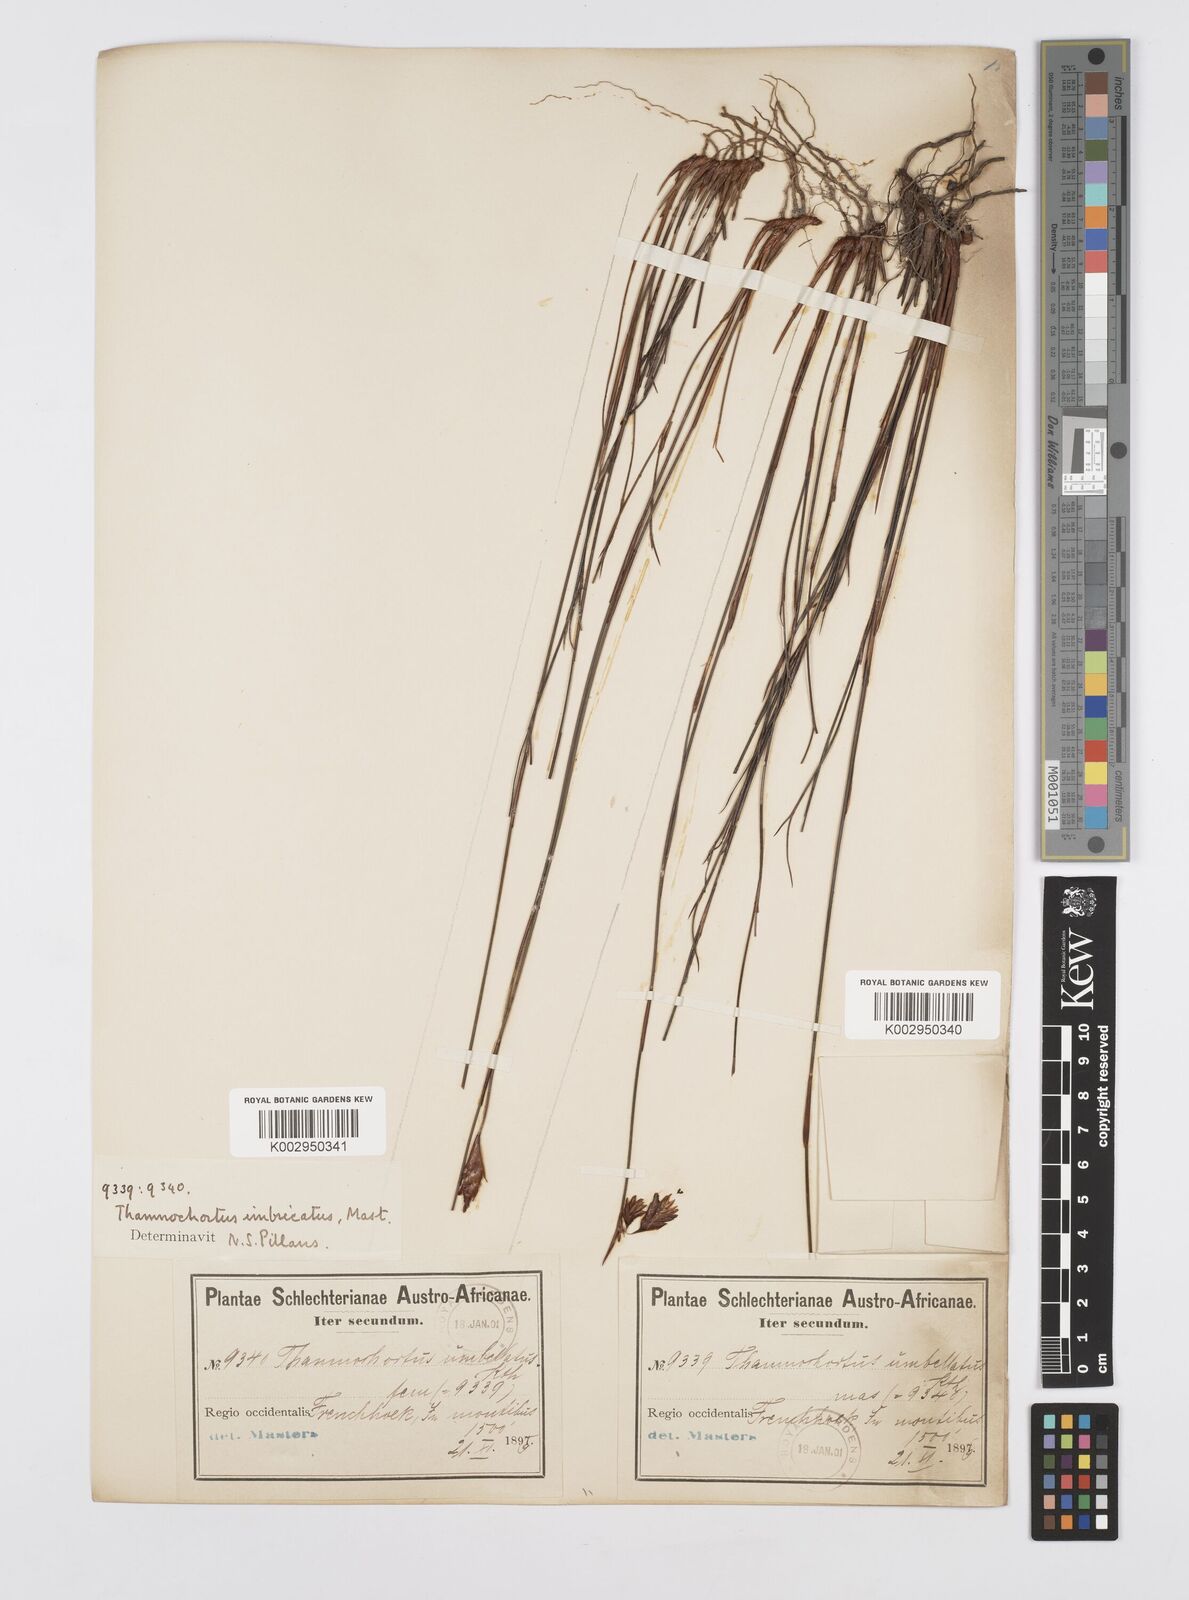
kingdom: Plantae
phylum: Tracheophyta
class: Liliopsida
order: Poales
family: Restionaceae
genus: Staberoha
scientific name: Staberoha distachyos
